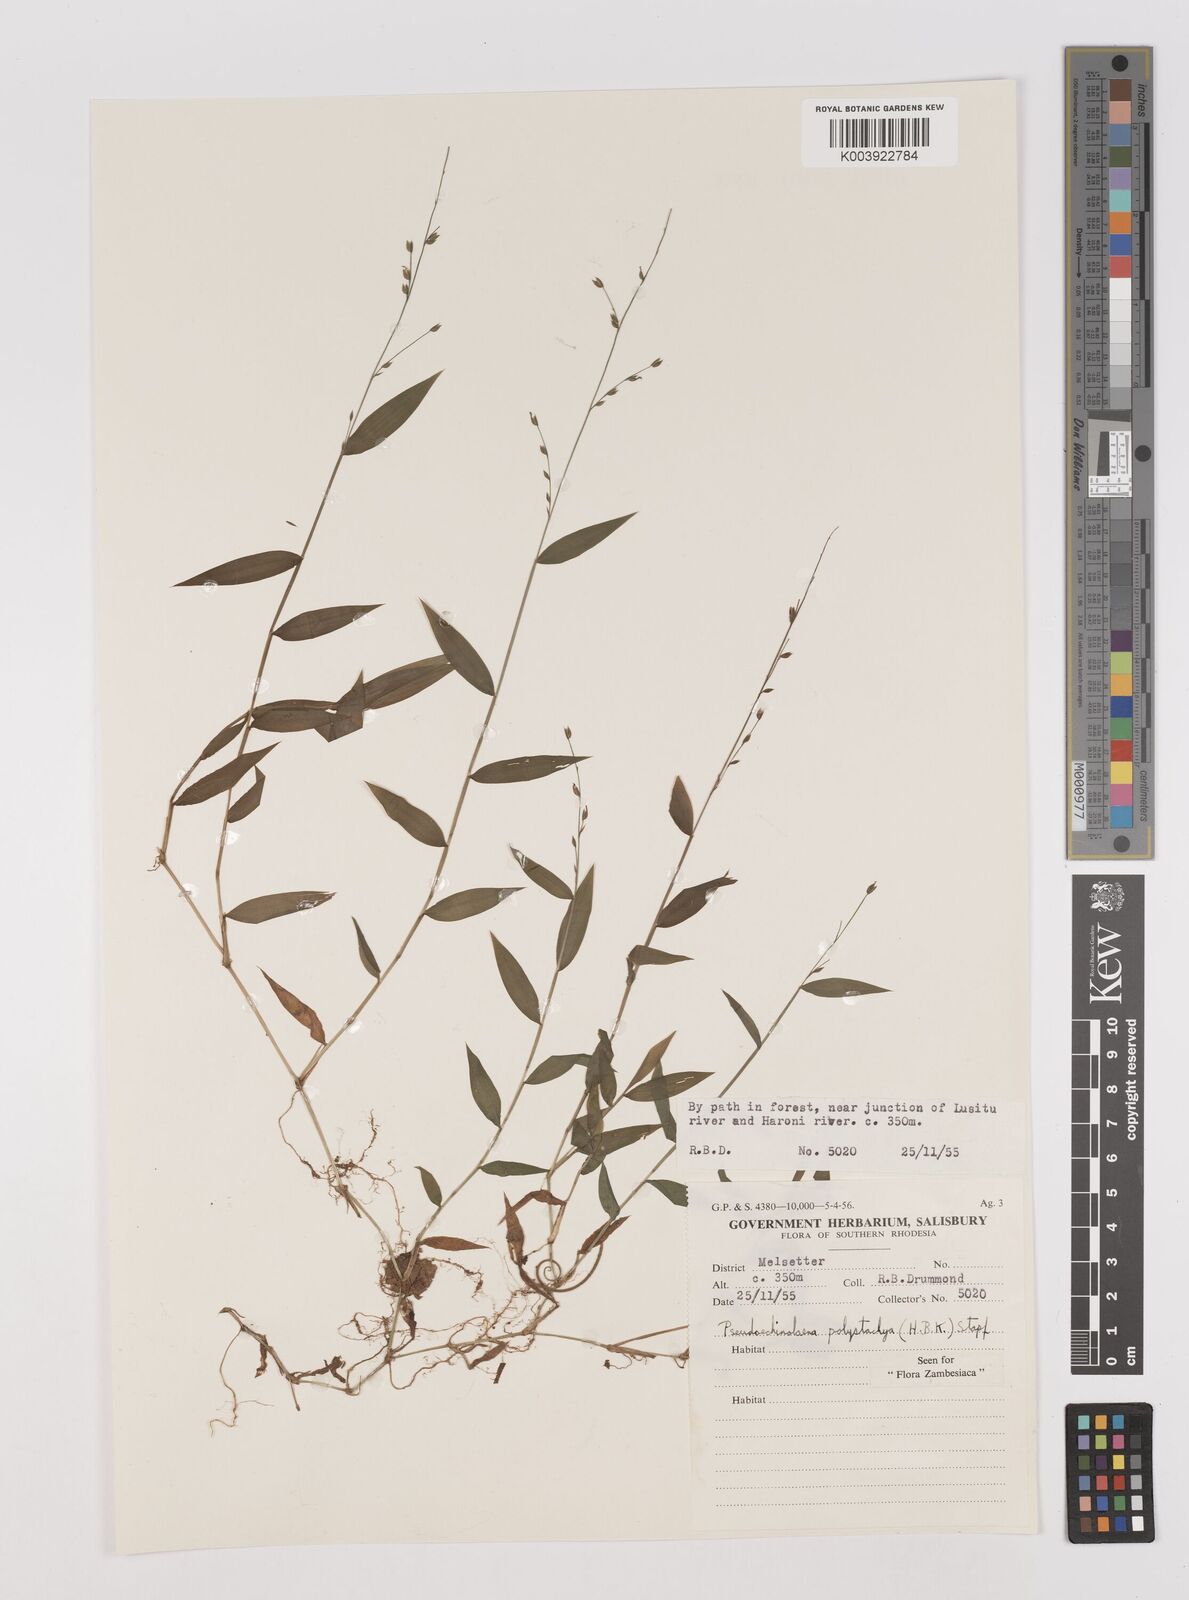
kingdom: Plantae
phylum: Tracheophyta
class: Liliopsida
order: Poales
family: Poaceae
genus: Pseudechinolaena
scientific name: Pseudechinolaena polystachya
